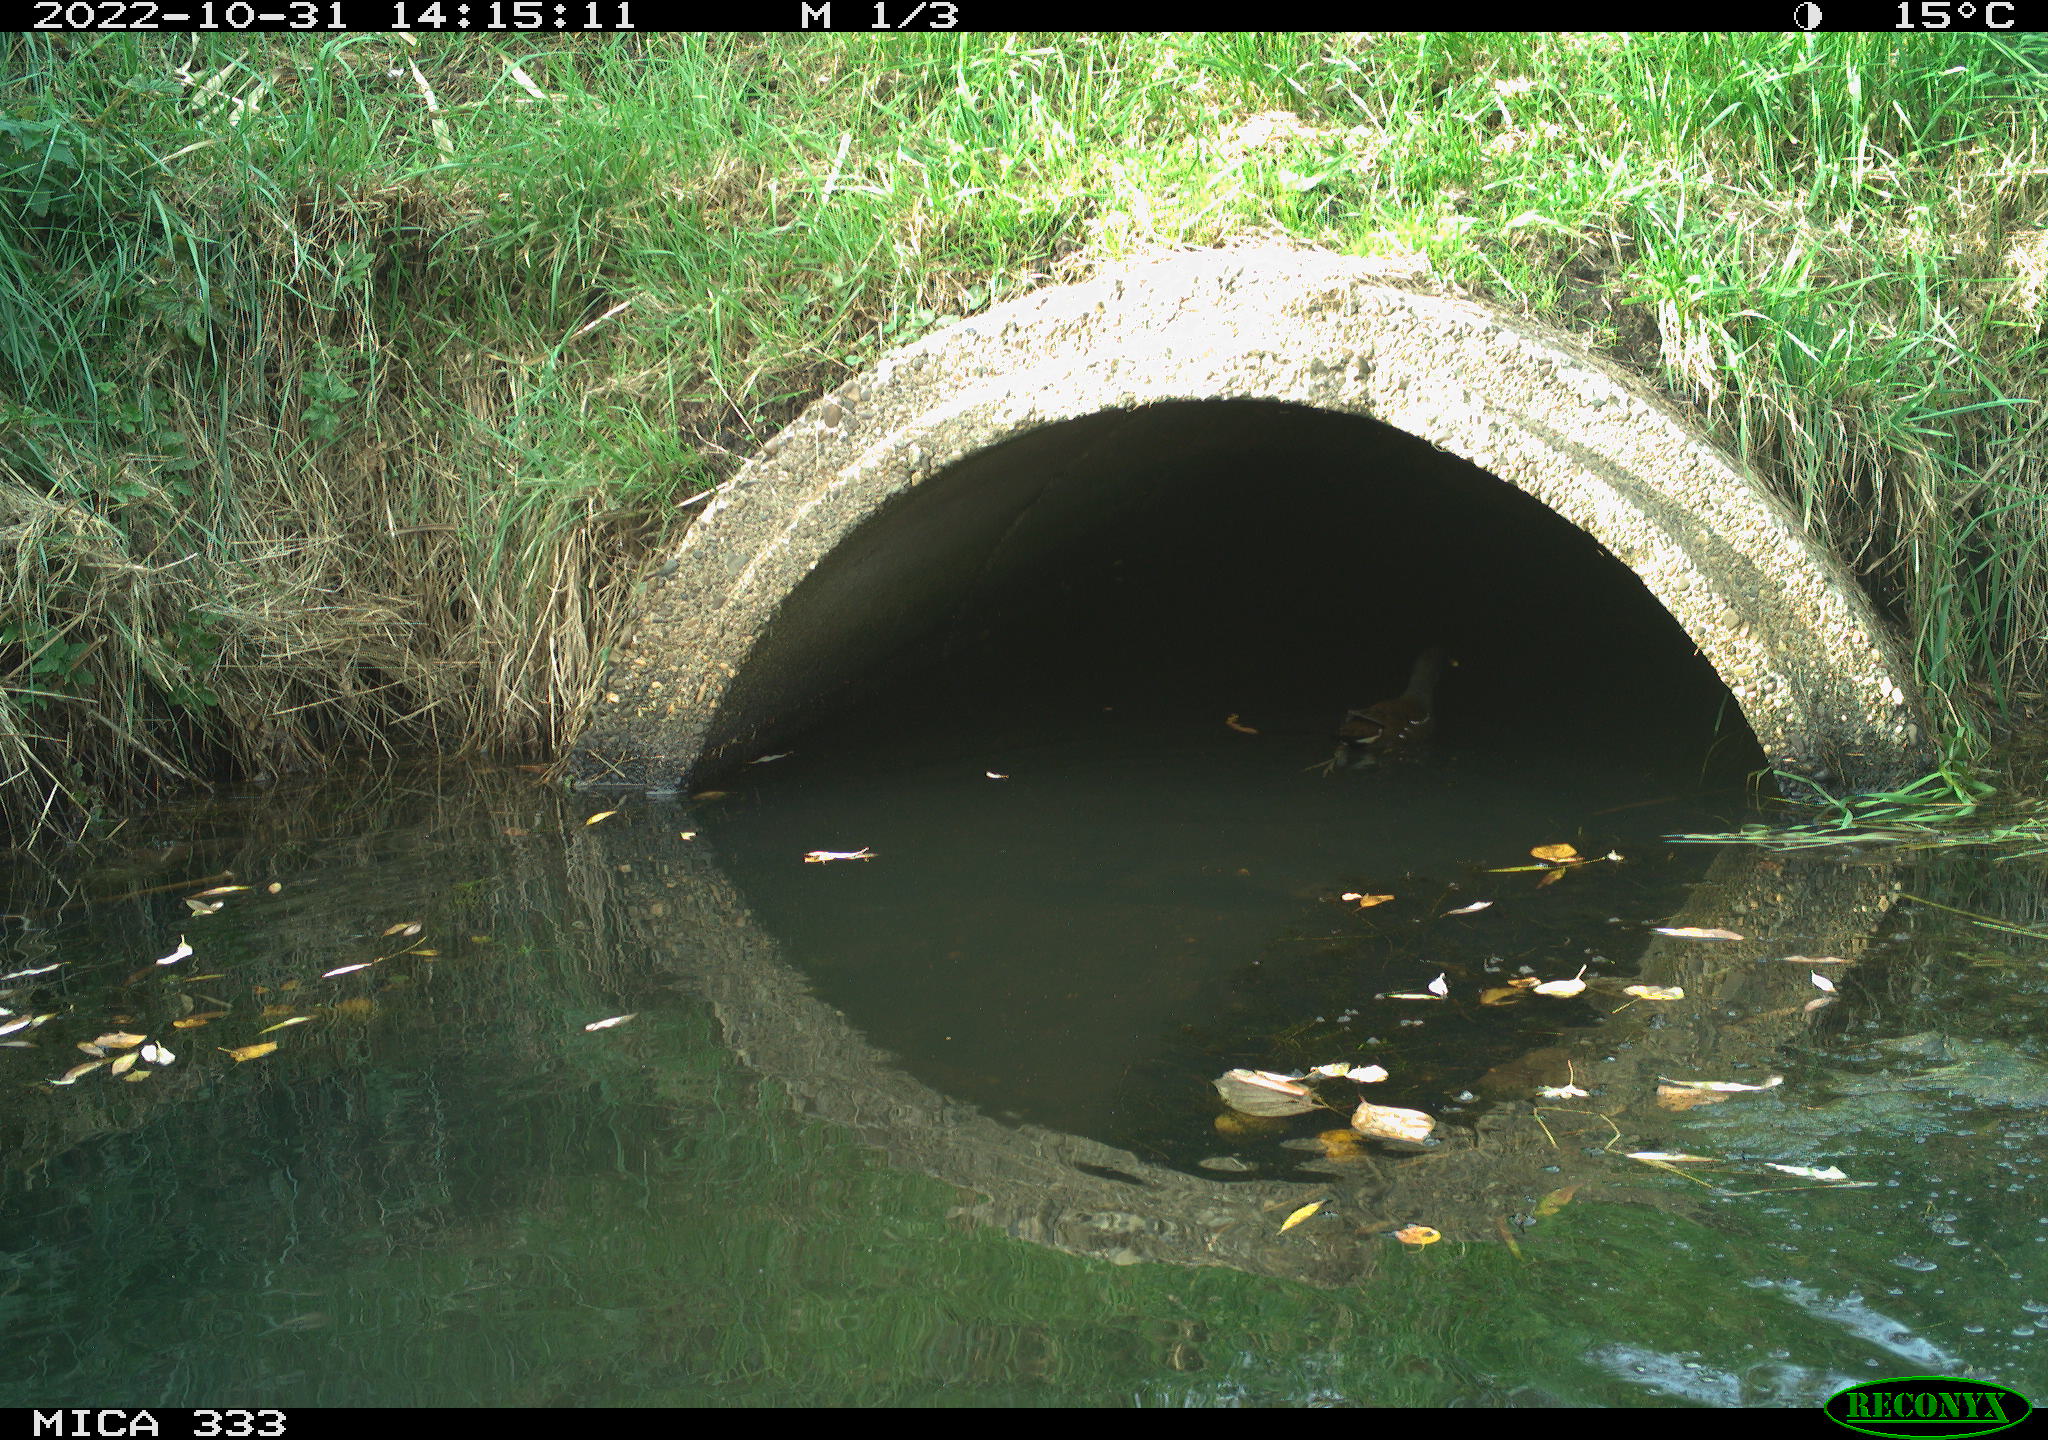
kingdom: Animalia
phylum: Chordata
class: Aves
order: Gruiformes
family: Rallidae
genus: Gallinula
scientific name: Gallinula chloropus
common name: Common moorhen
